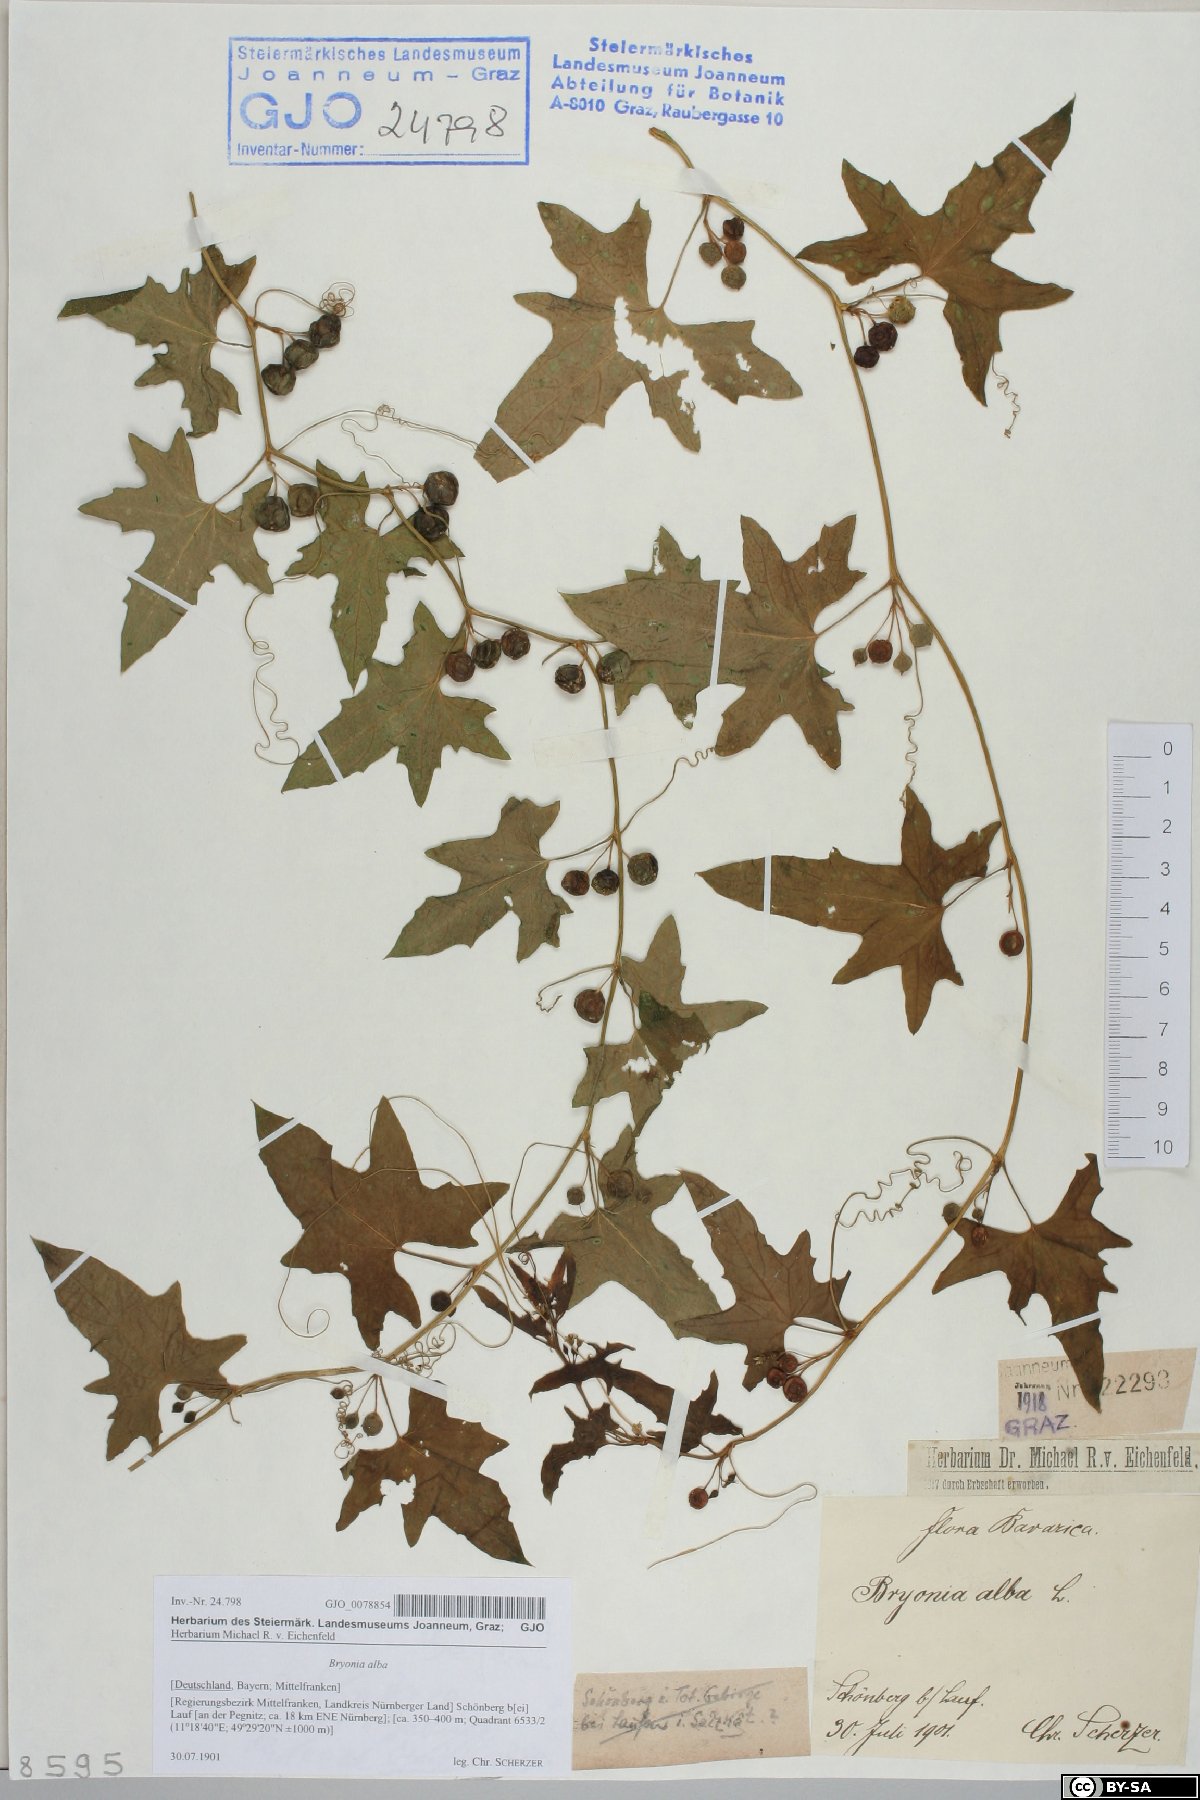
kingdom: Plantae
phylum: Tracheophyta
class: Magnoliopsida
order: Cucurbitales
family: Cucurbitaceae
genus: Bryonia
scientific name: Bryonia alba
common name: White bryony
